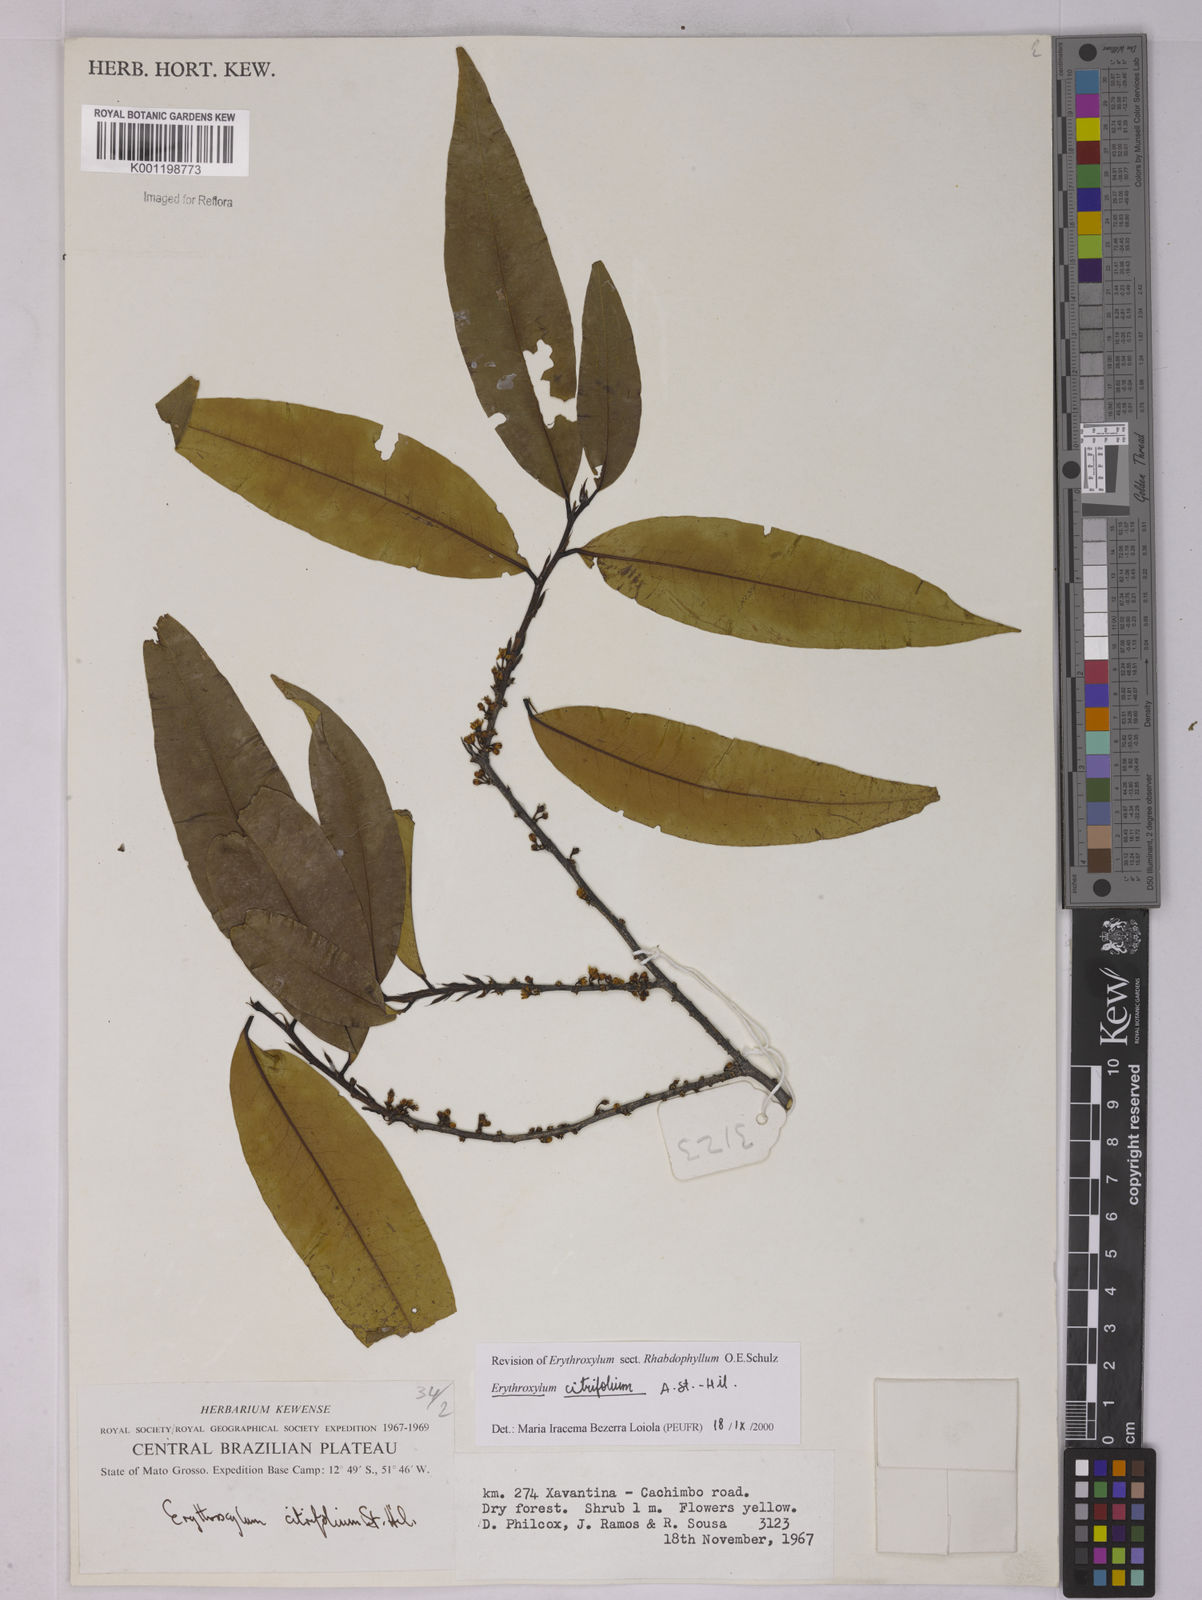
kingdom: Plantae
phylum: Tracheophyta
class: Magnoliopsida
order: Malpighiales
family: Erythroxylaceae
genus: Erythroxylum
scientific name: Erythroxylum citrifolium
